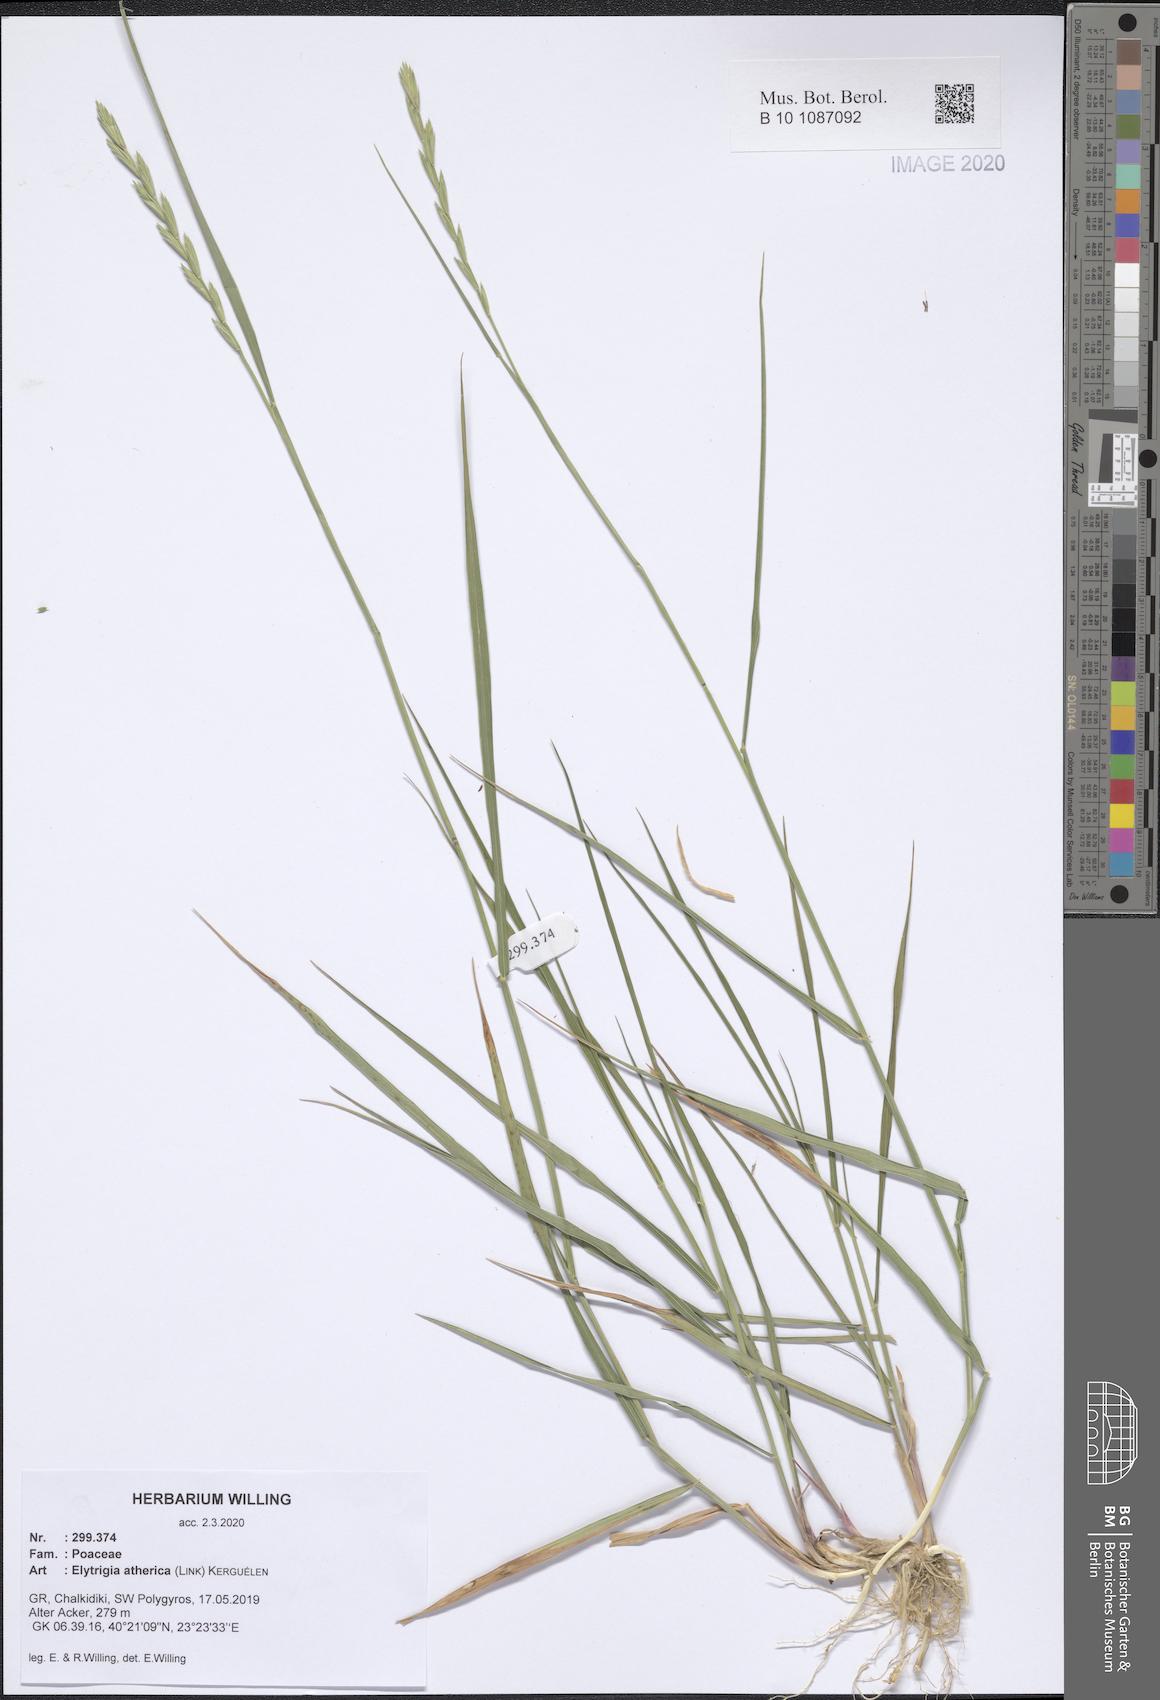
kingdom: Plantae
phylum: Tracheophyta
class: Liliopsida
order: Poales
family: Poaceae
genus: Elymus
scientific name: Elymus athericus
